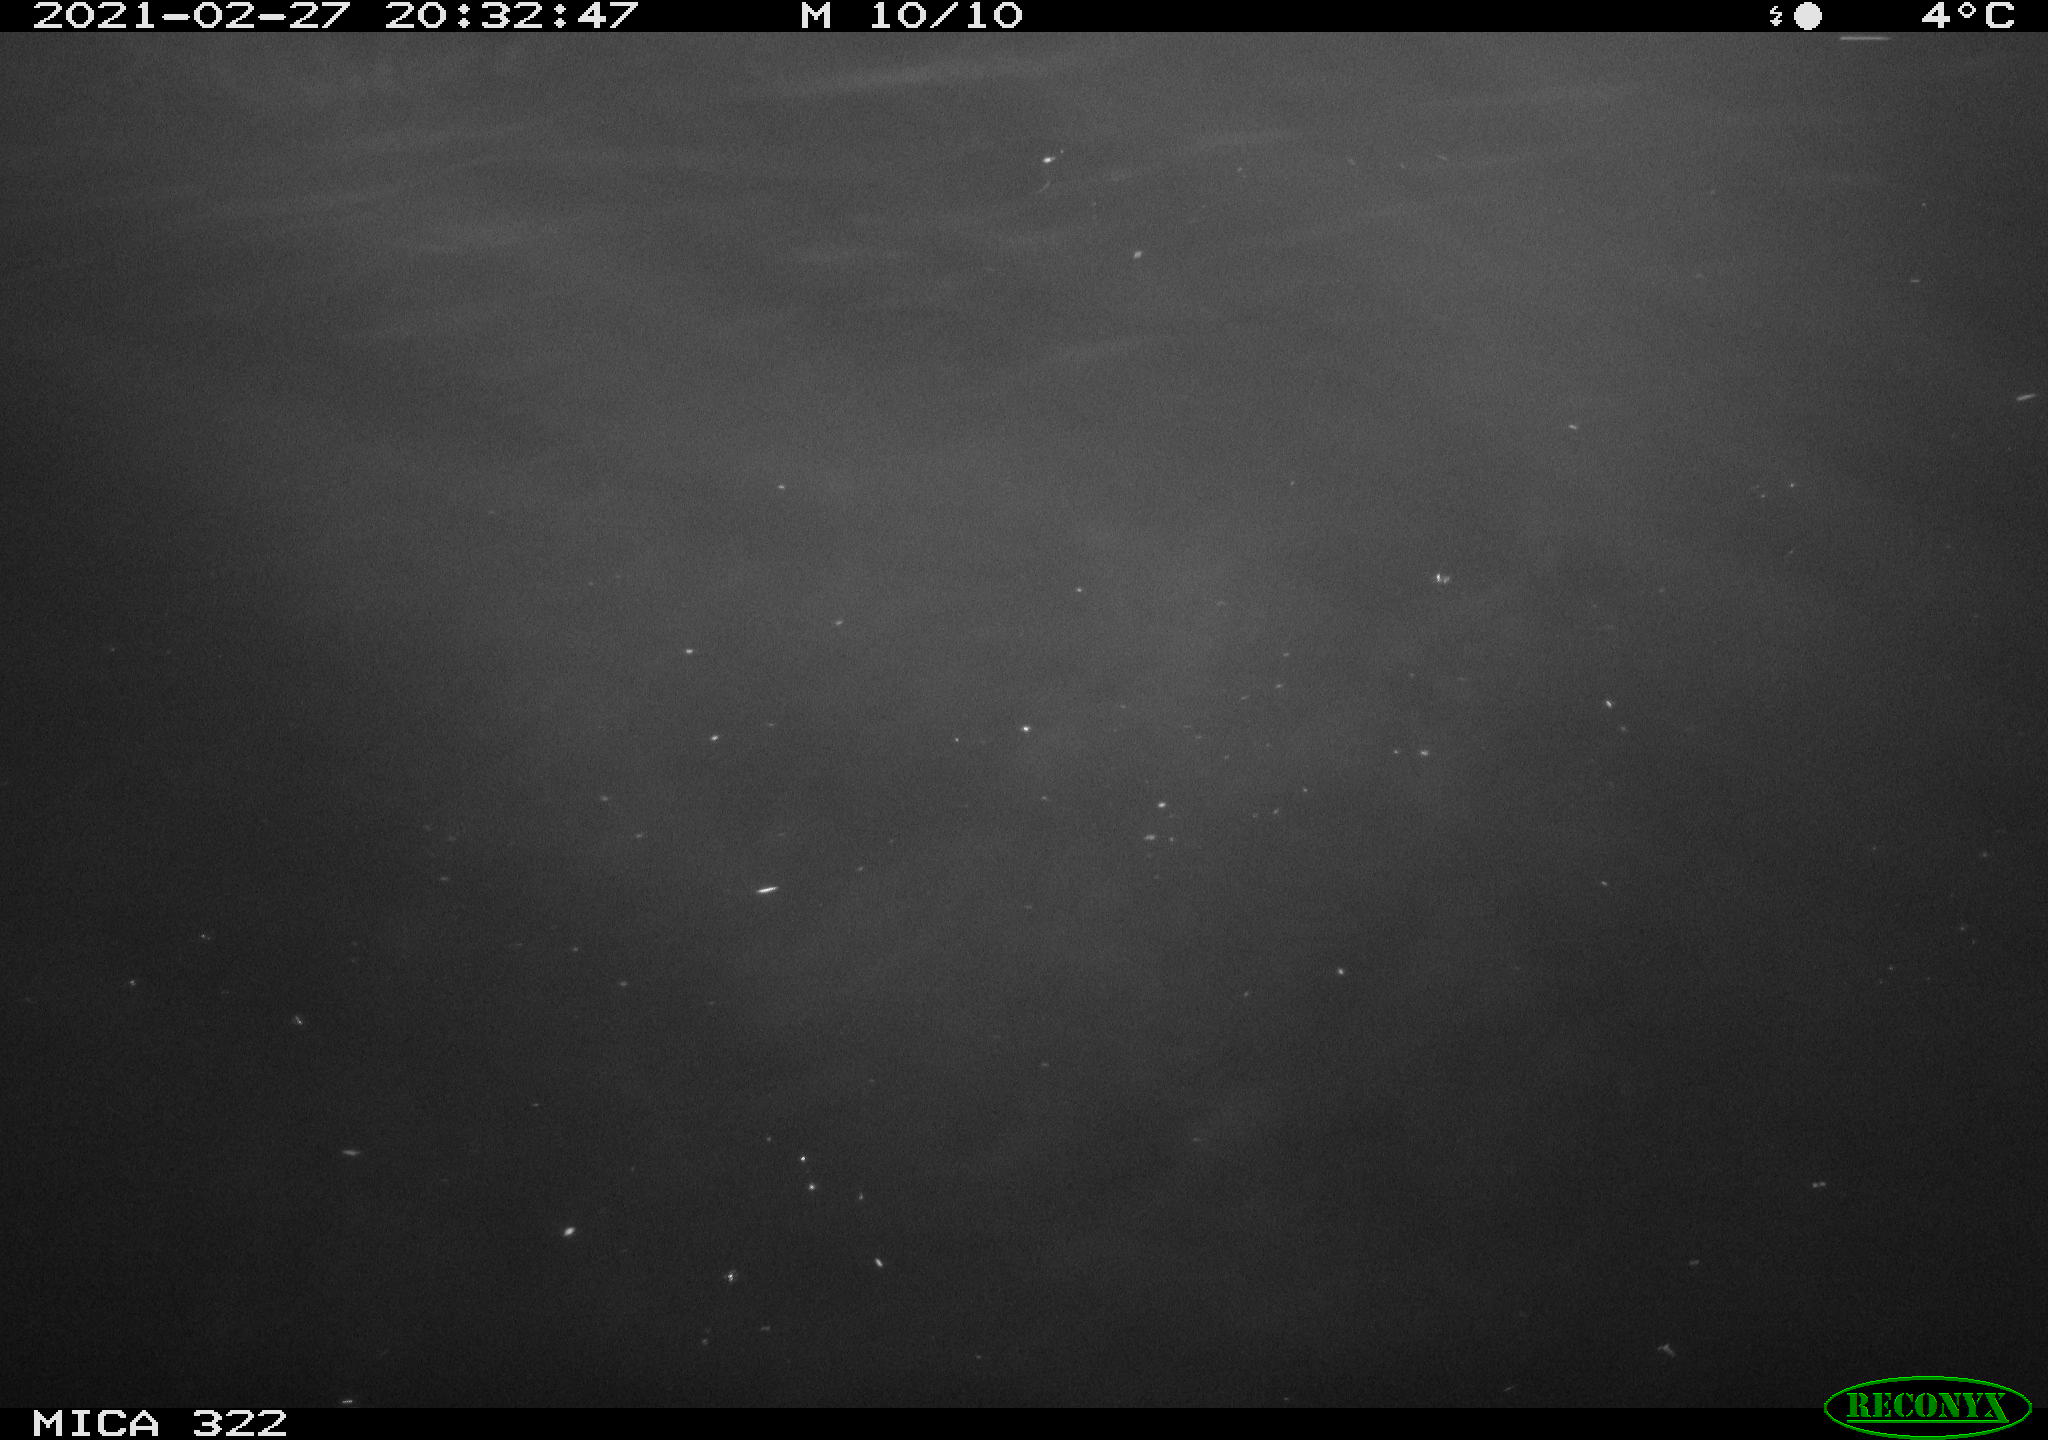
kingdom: Animalia
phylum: Chordata
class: Aves
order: Gruiformes
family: Rallidae
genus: Fulica
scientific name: Fulica atra
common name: Eurasian coot
